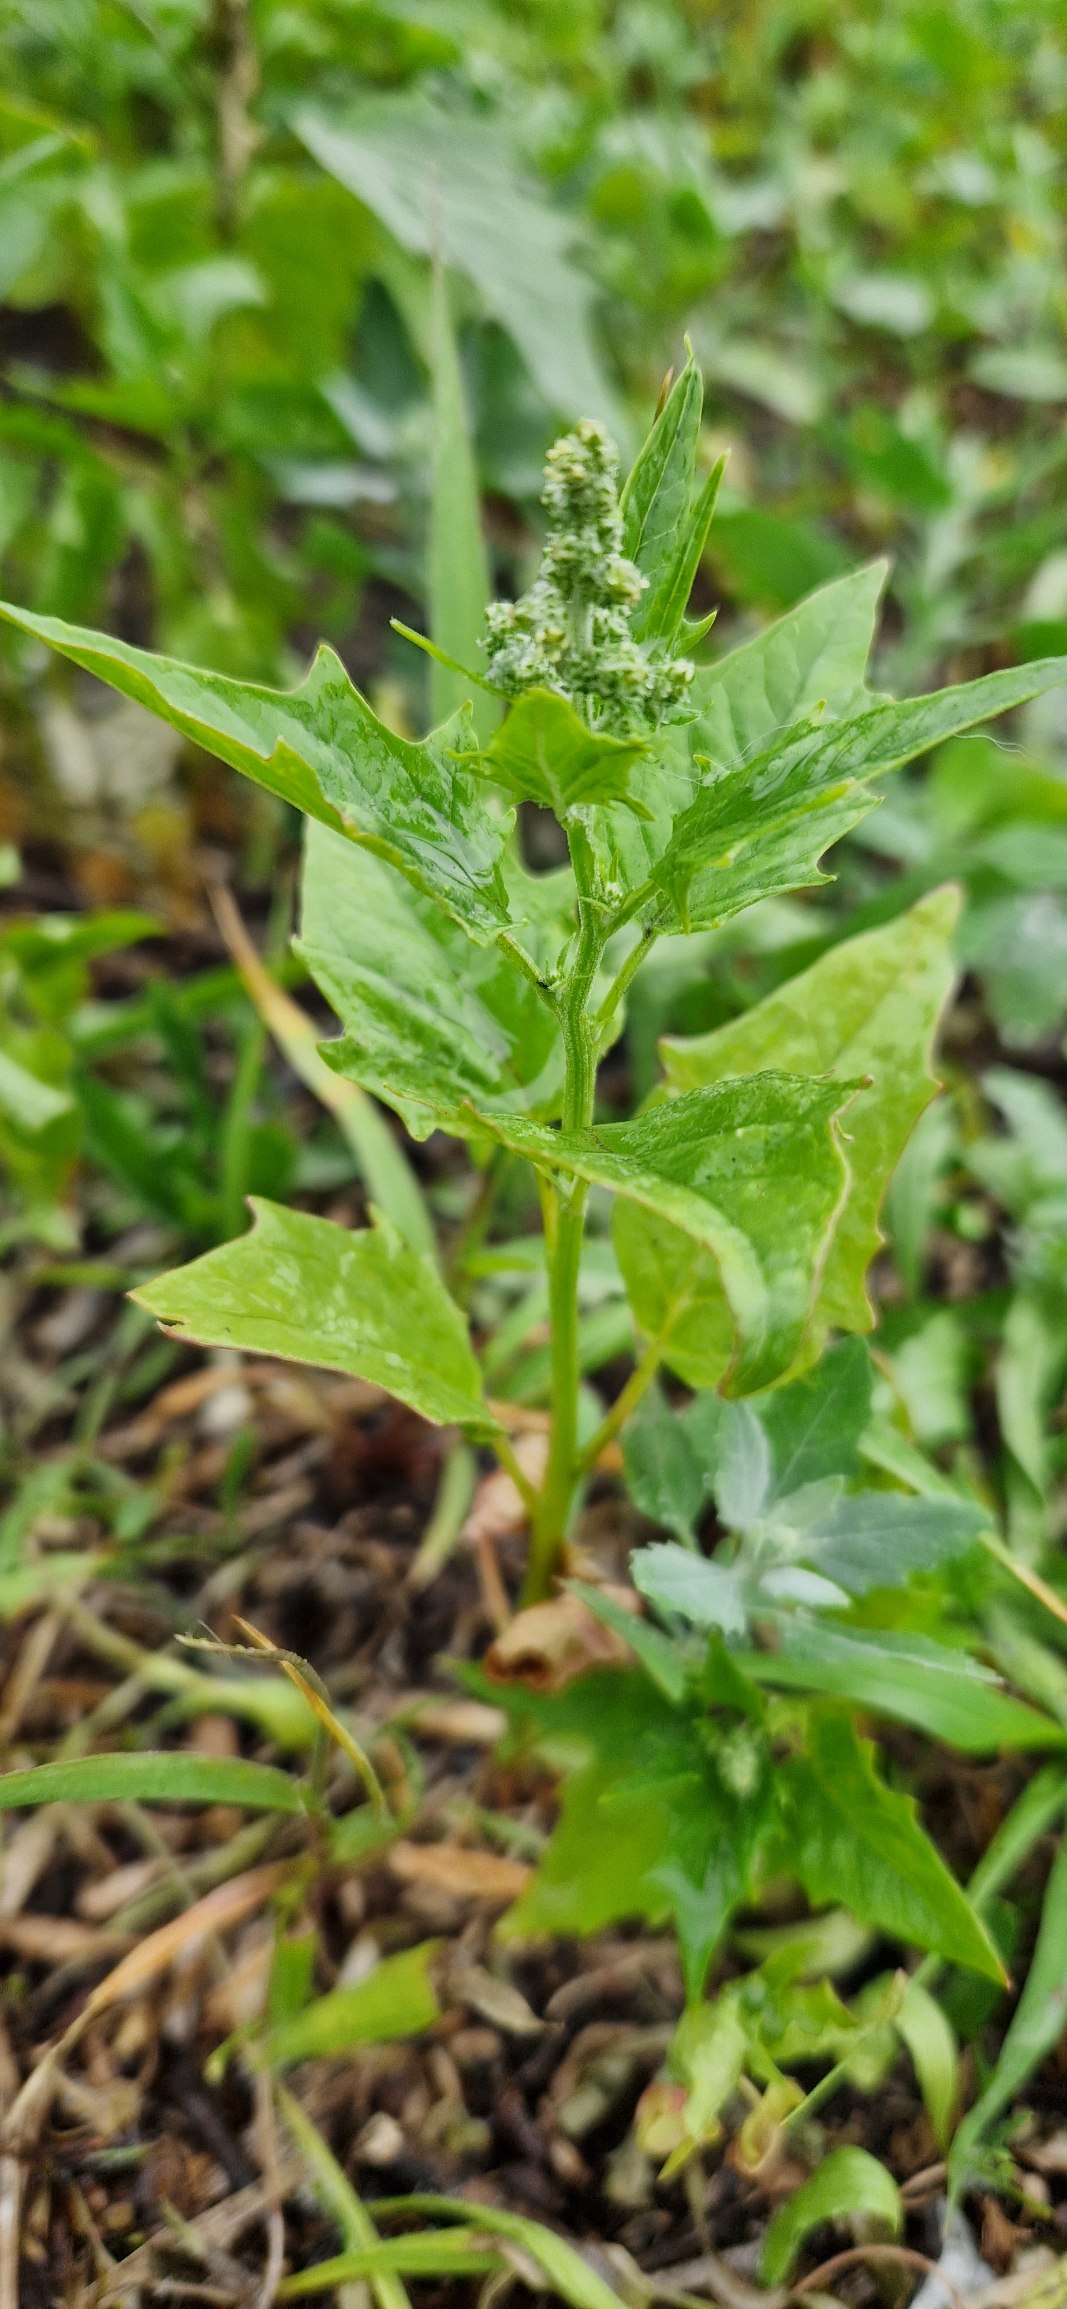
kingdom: Plantae
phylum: Tracheophyta
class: Magnoliopsida
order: Caryophyllales
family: Amaranthaceae
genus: Chenopodiastrum
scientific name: Chenopodiastrum hybridum
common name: Hjertebladet gåsefod
